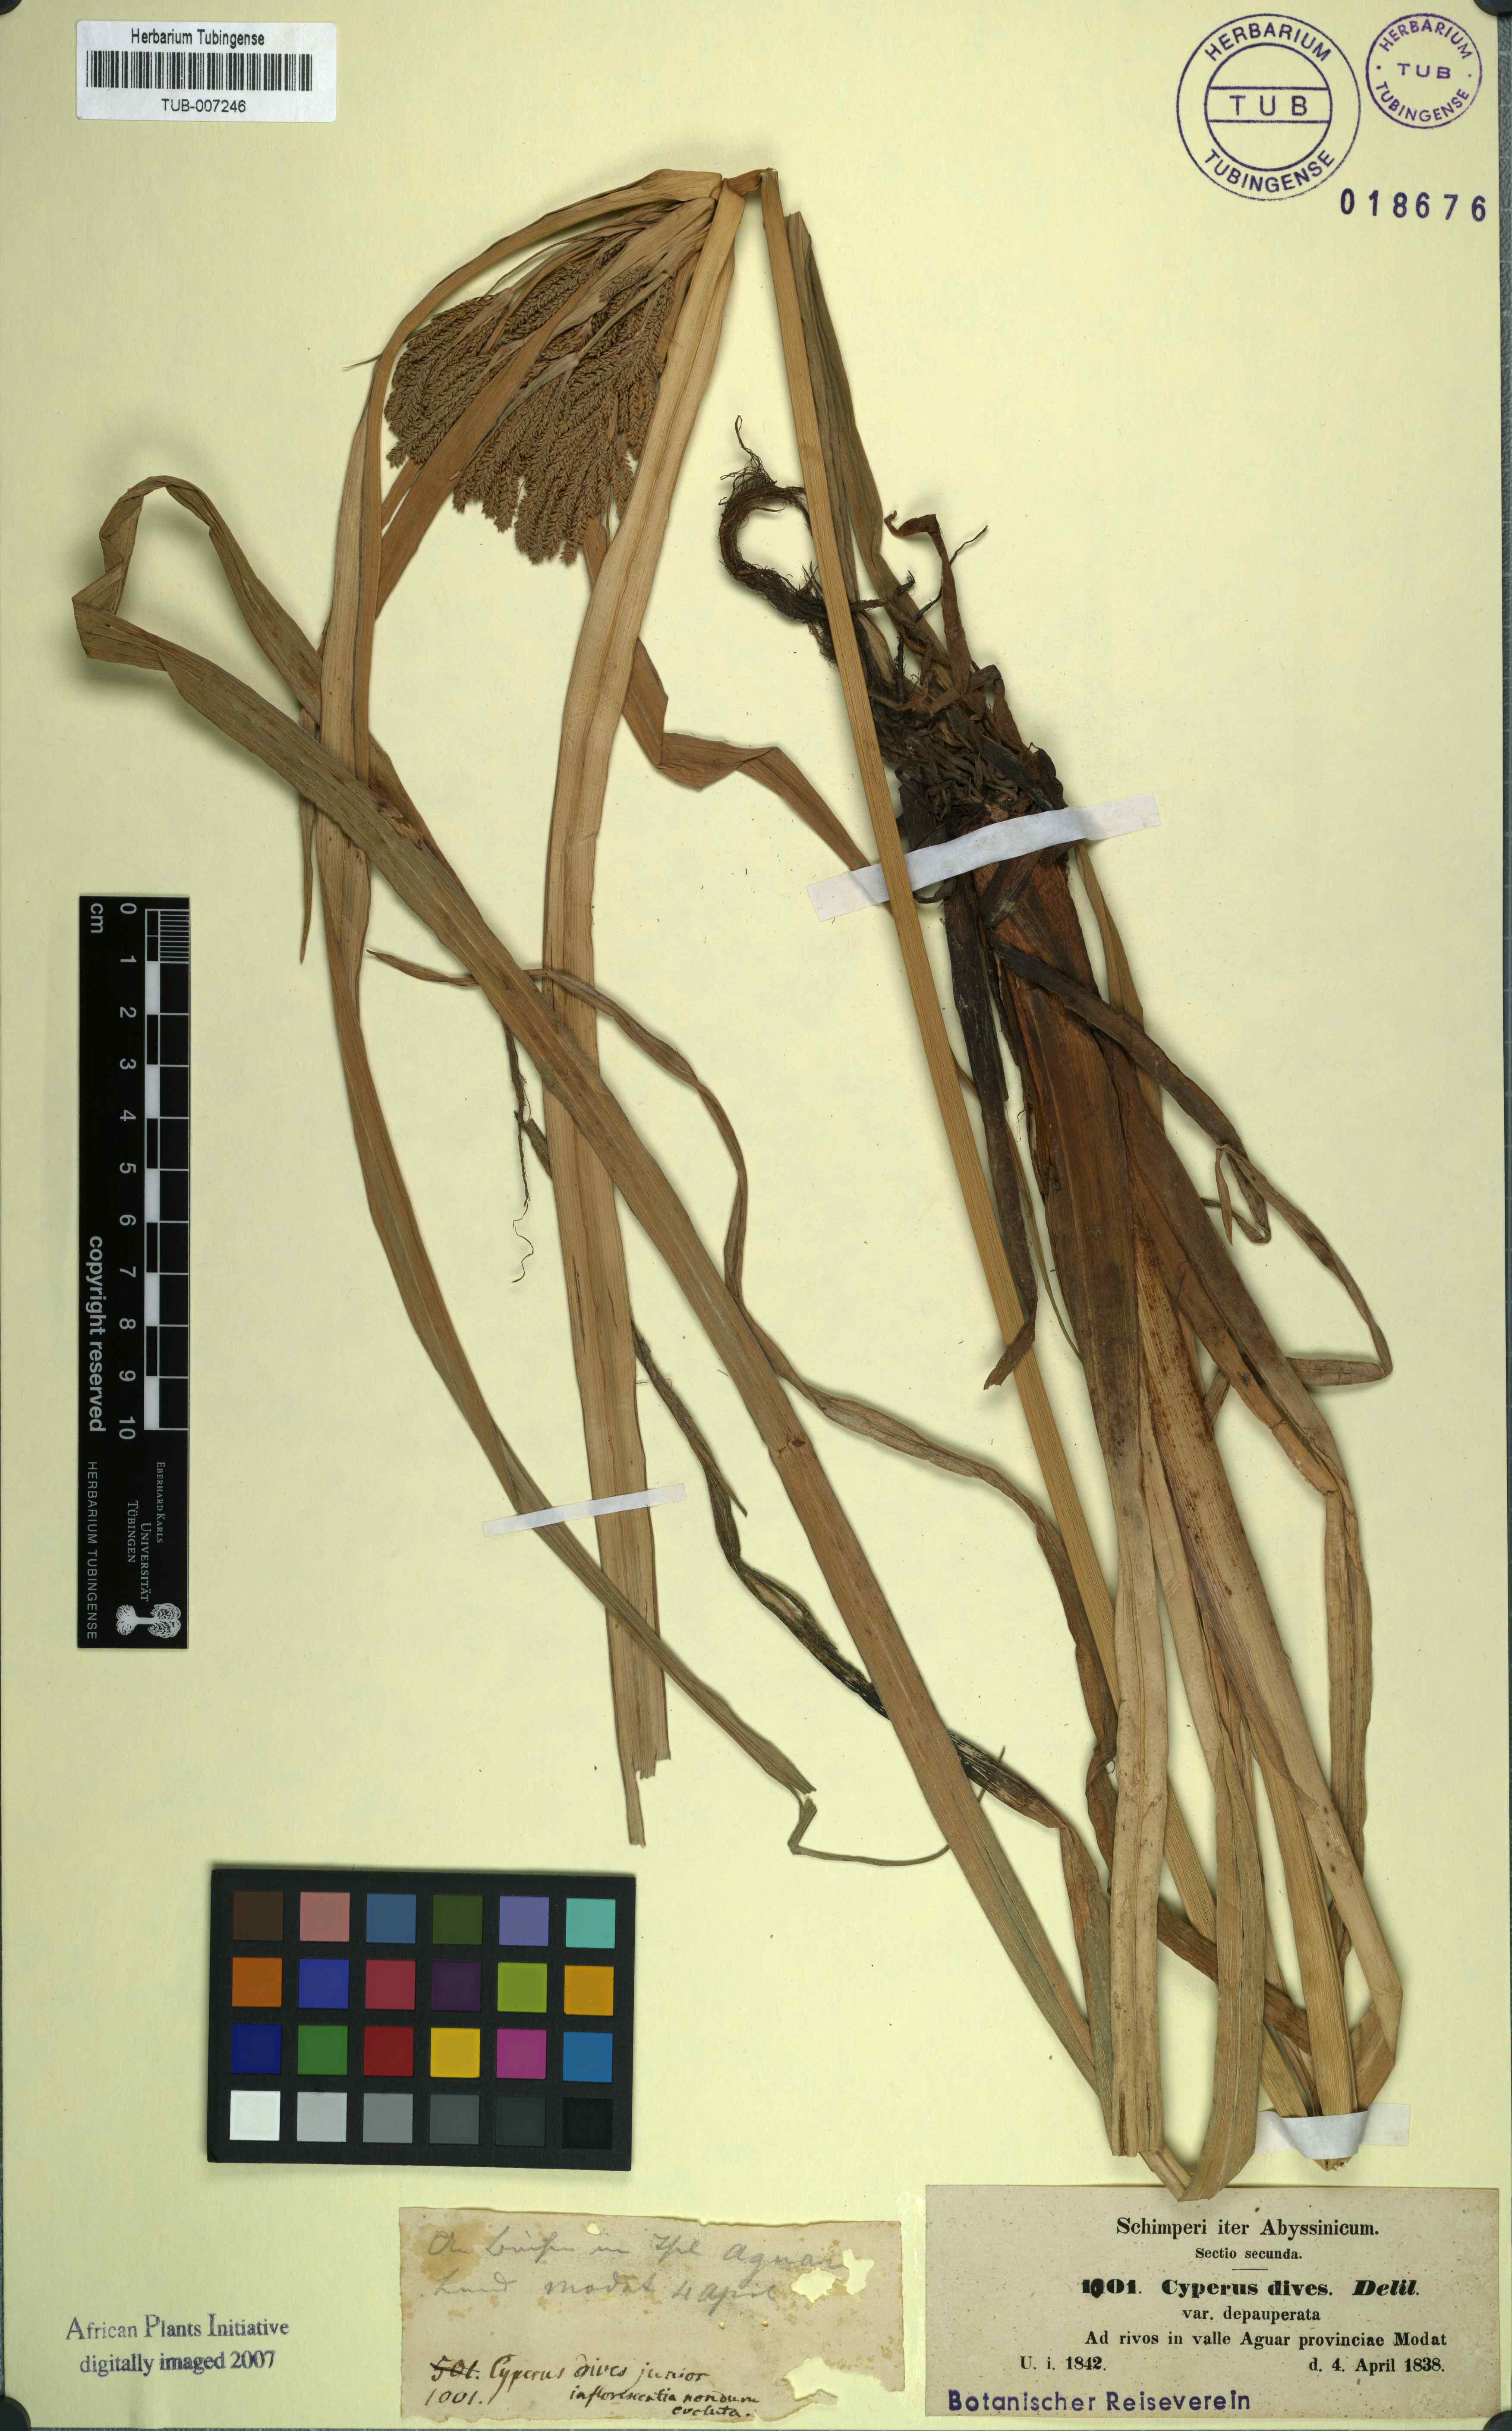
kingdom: Plantae
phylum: Tracheophyta
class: Liliopsida
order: Poales
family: Cyperaceae
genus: Cyperus
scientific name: Cyperus dives
